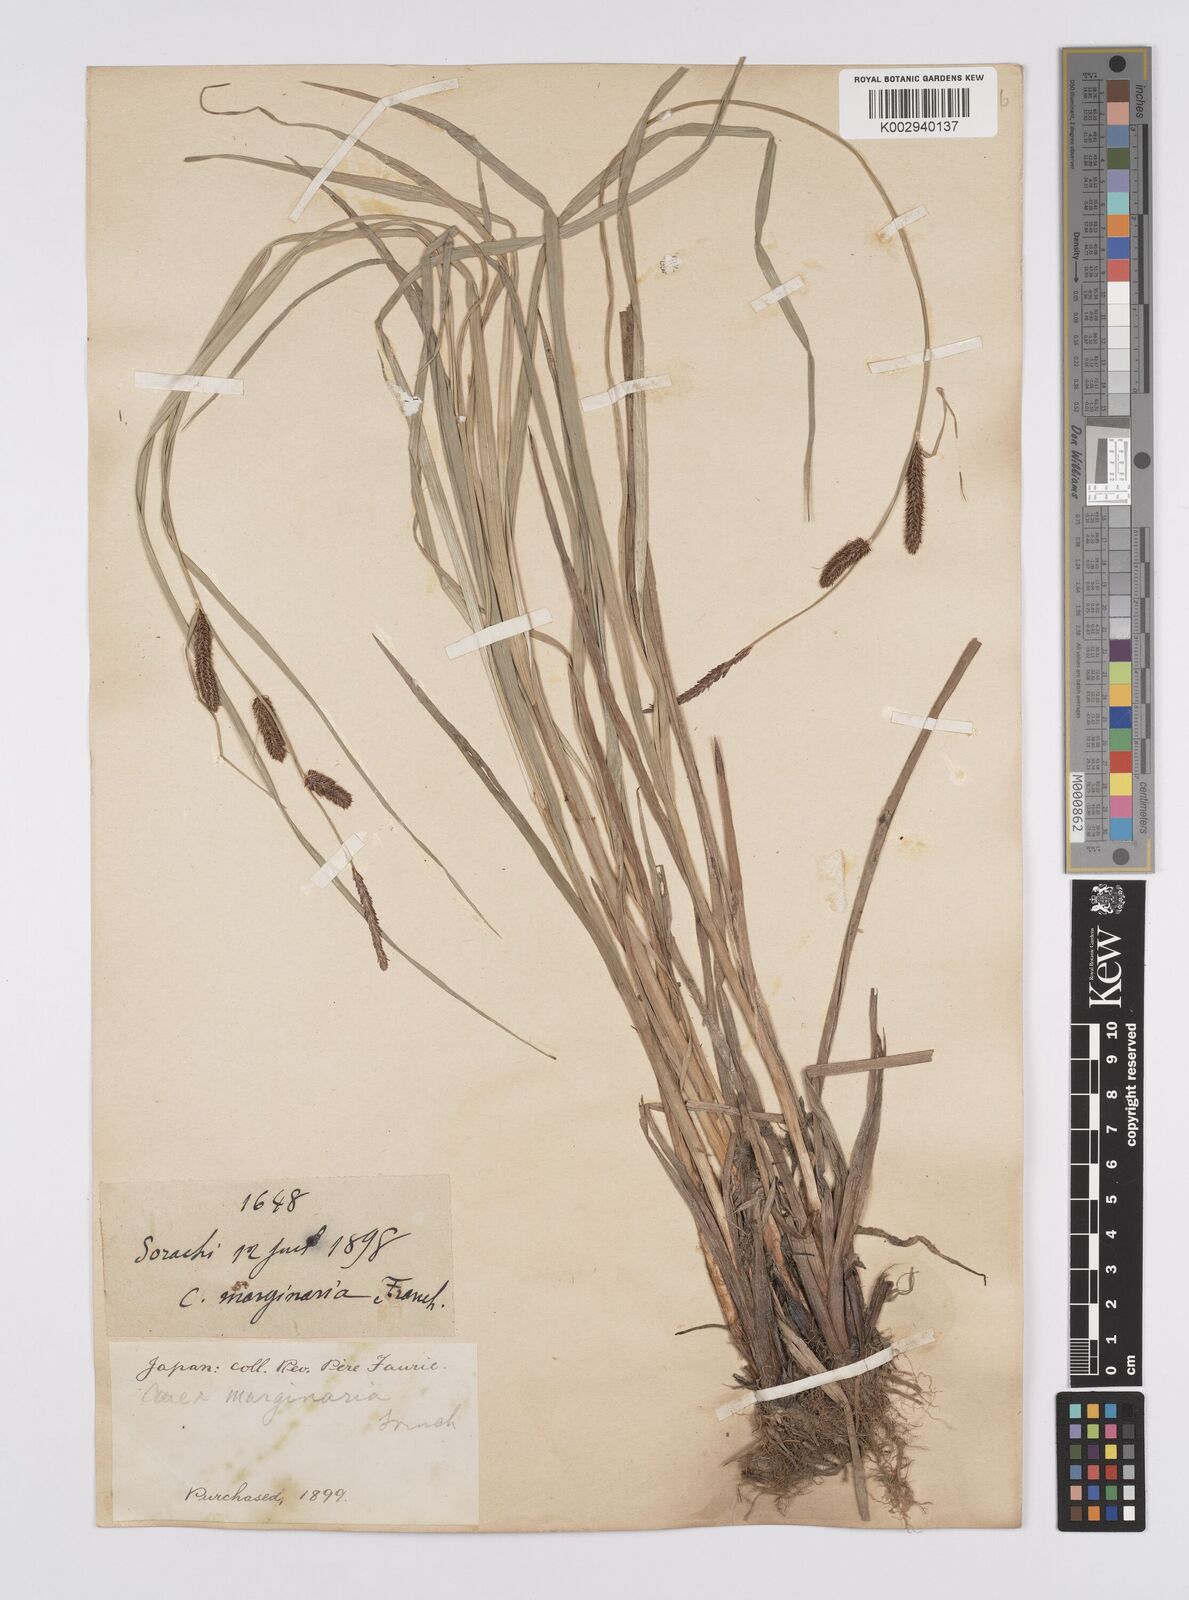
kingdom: Plantae
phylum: Tracheophyta
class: Liliopsida
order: Poales
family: Cyperaceae
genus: Carex
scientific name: Carex cruenta
